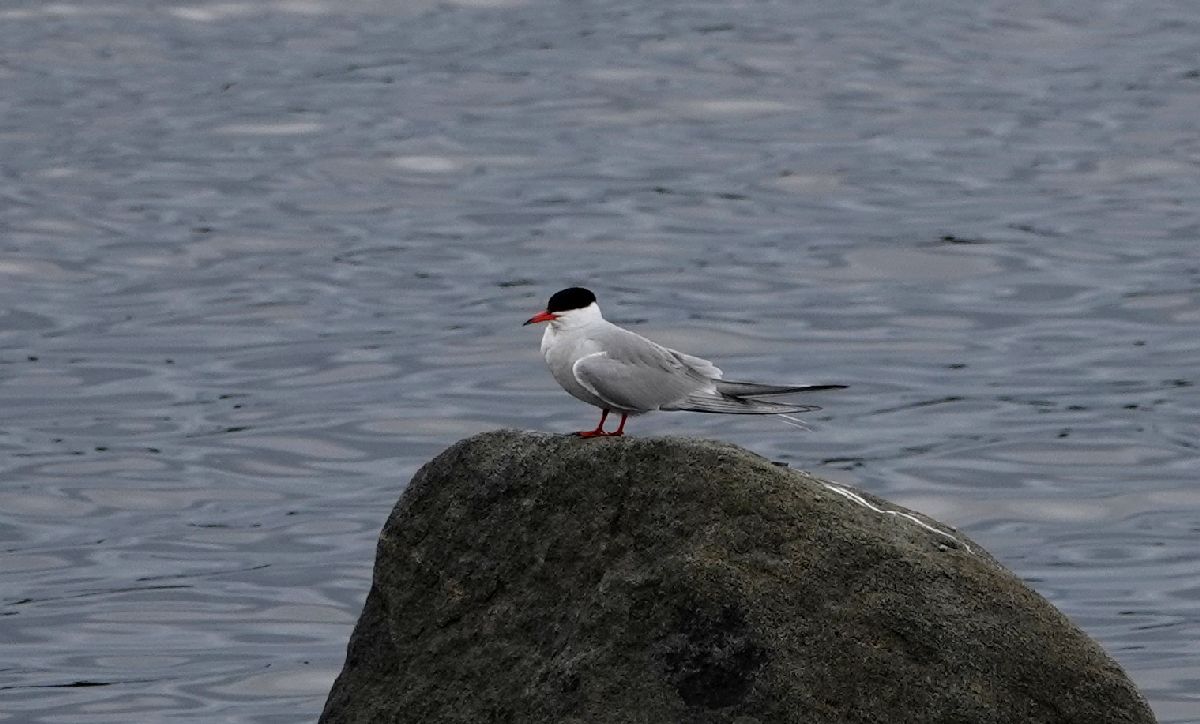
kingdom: Animalia
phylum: Chordata
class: Aves
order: Charadriiformes
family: Laridae
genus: Sterna
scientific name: Sterna hirundo
